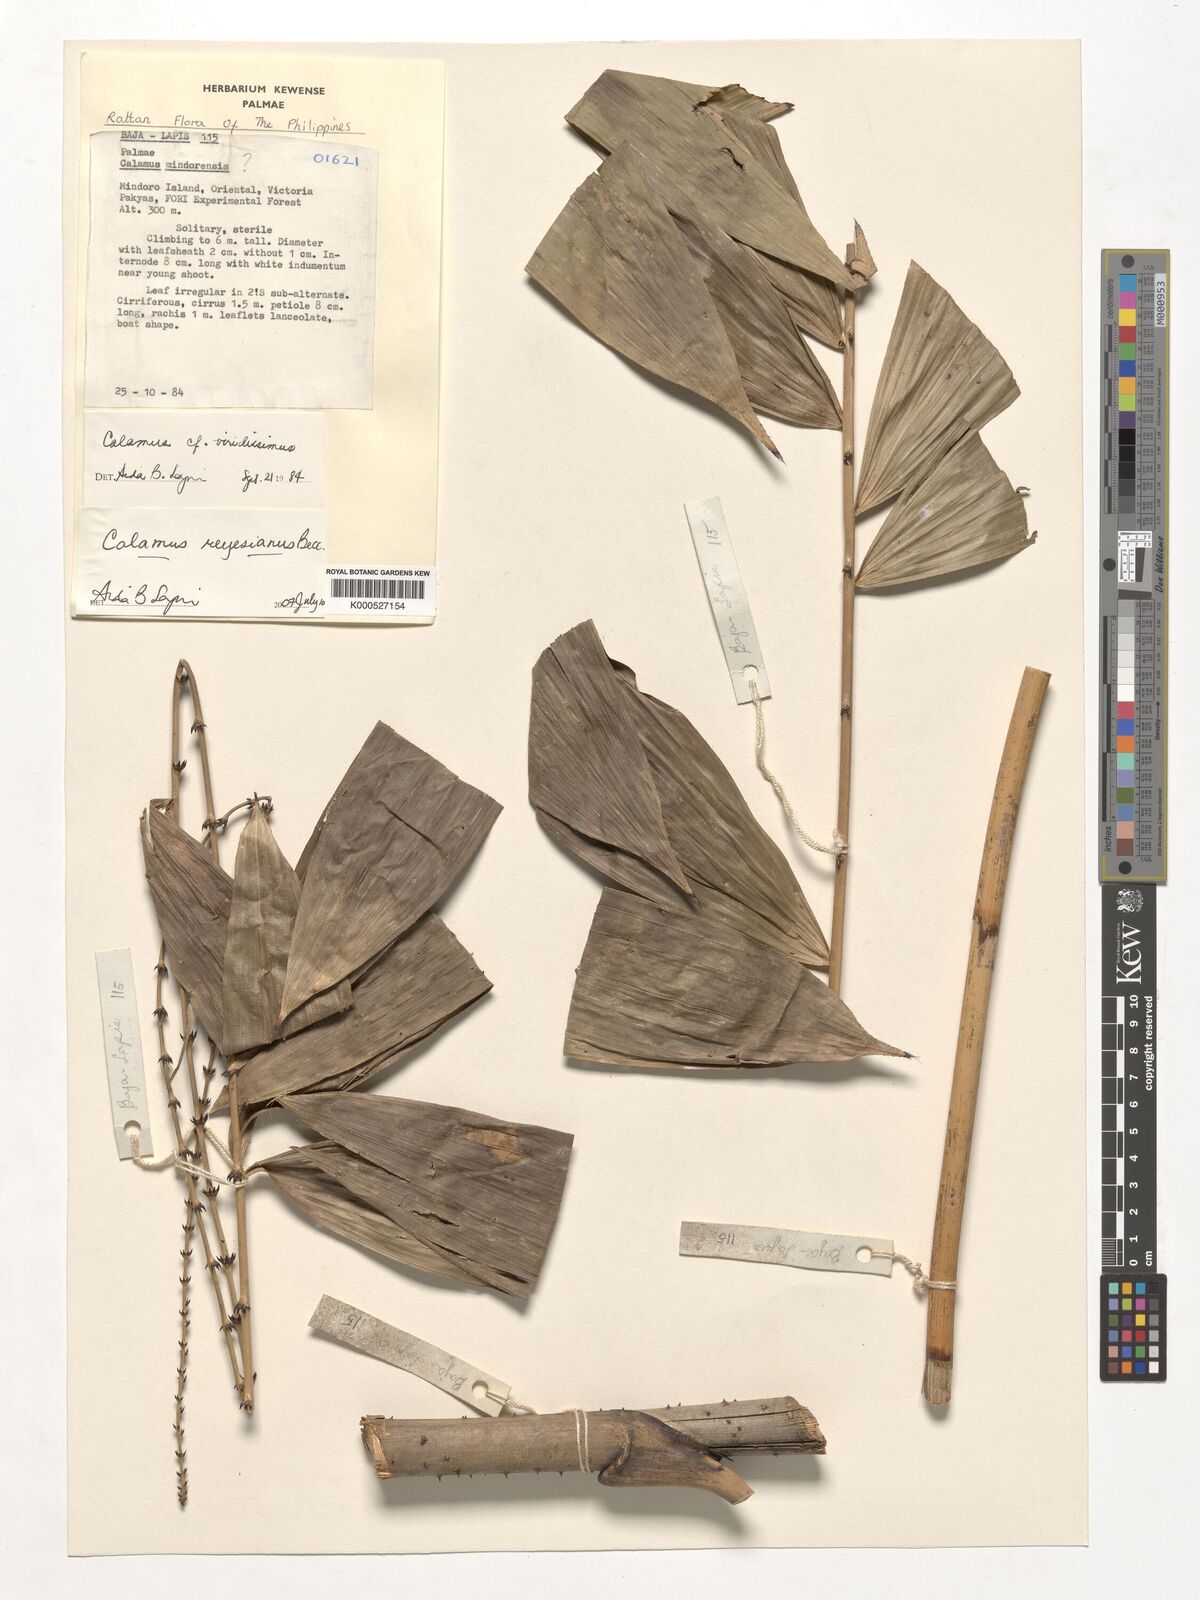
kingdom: Plantae
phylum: Tracheophyta
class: Liliopsida
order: Arecales
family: Arecaceae
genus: Calamus
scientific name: Calamus moseleyanus
